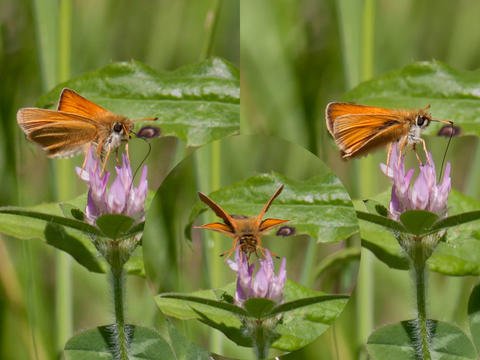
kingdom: Animalia
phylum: Arthropoda
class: Insecta
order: Lepidoptera
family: Hesperiidae
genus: Thymelicus
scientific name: Thymelicus lineola
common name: European Skipper
